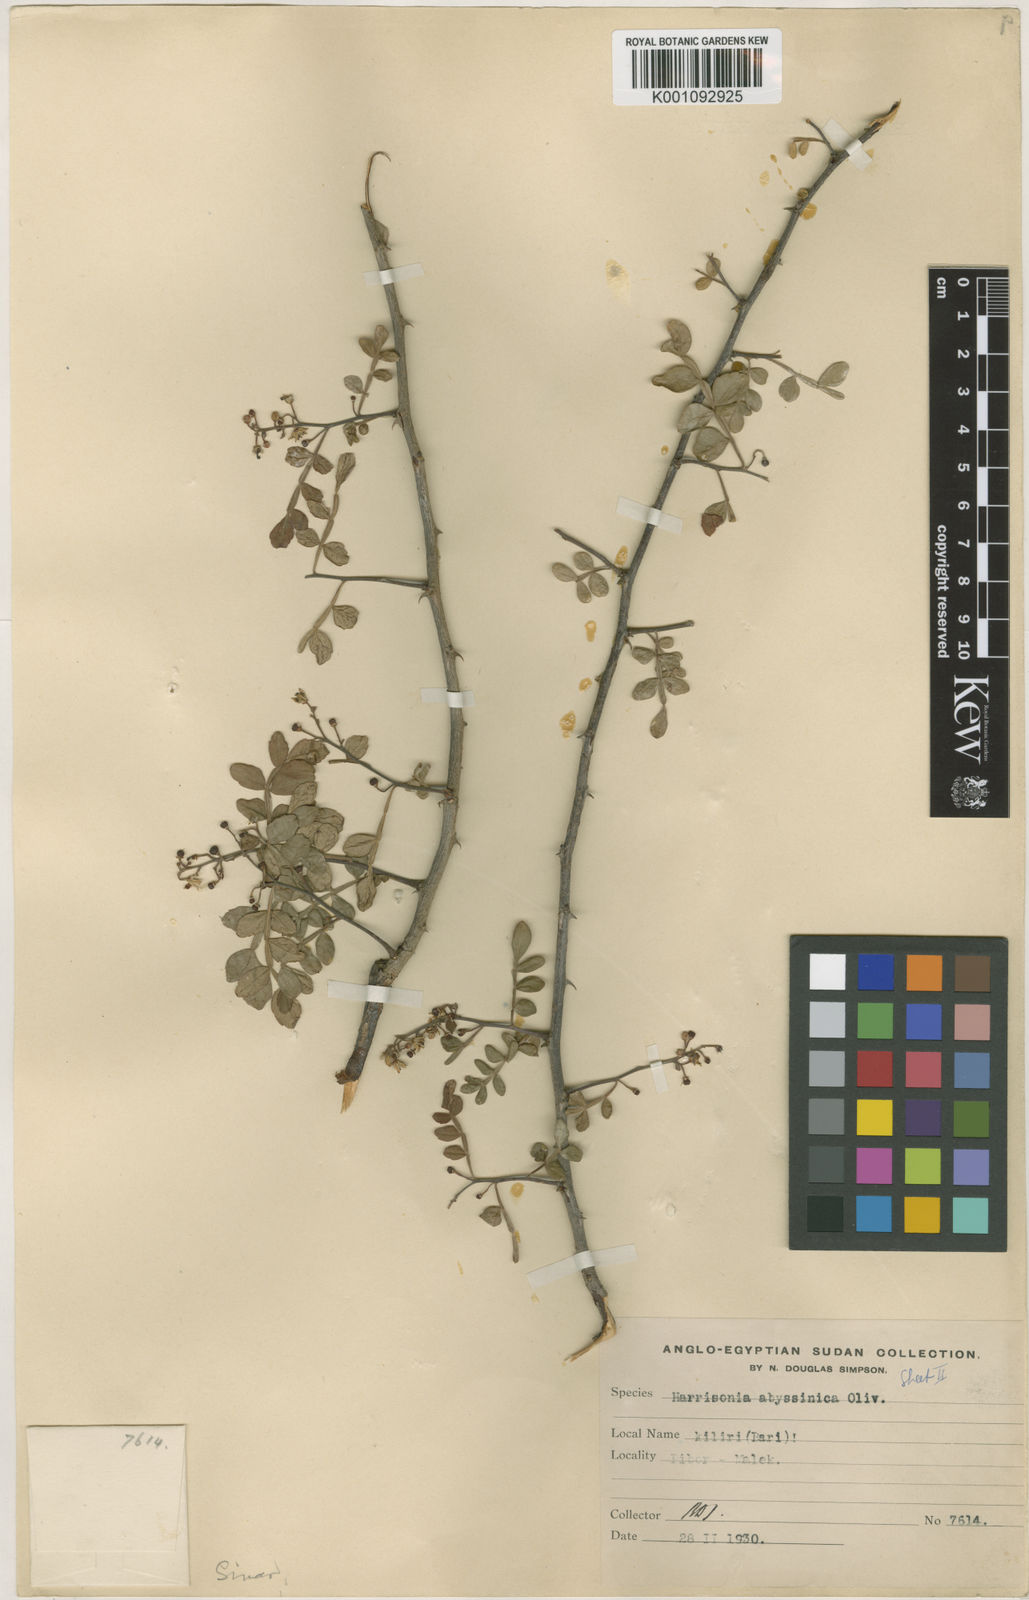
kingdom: Plantae
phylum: Tracheophyta
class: Magnoliopsida
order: Sapindales
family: Rutaceae
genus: Harrisonia
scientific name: Harrisonia abyssinica
